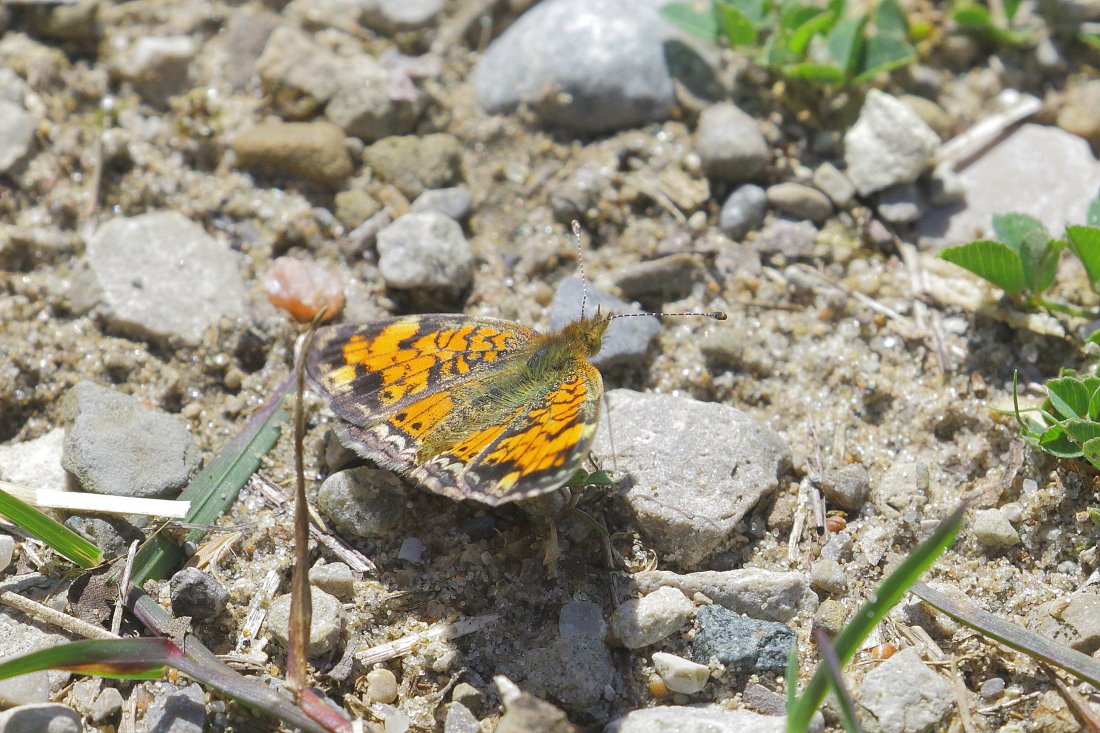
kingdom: Animalia
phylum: Arthropoda
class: Insecta
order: Lepidoptera
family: Nymphalidae
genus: Phyciodes
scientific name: Phyciodes tharos
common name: Pearl Crescent
